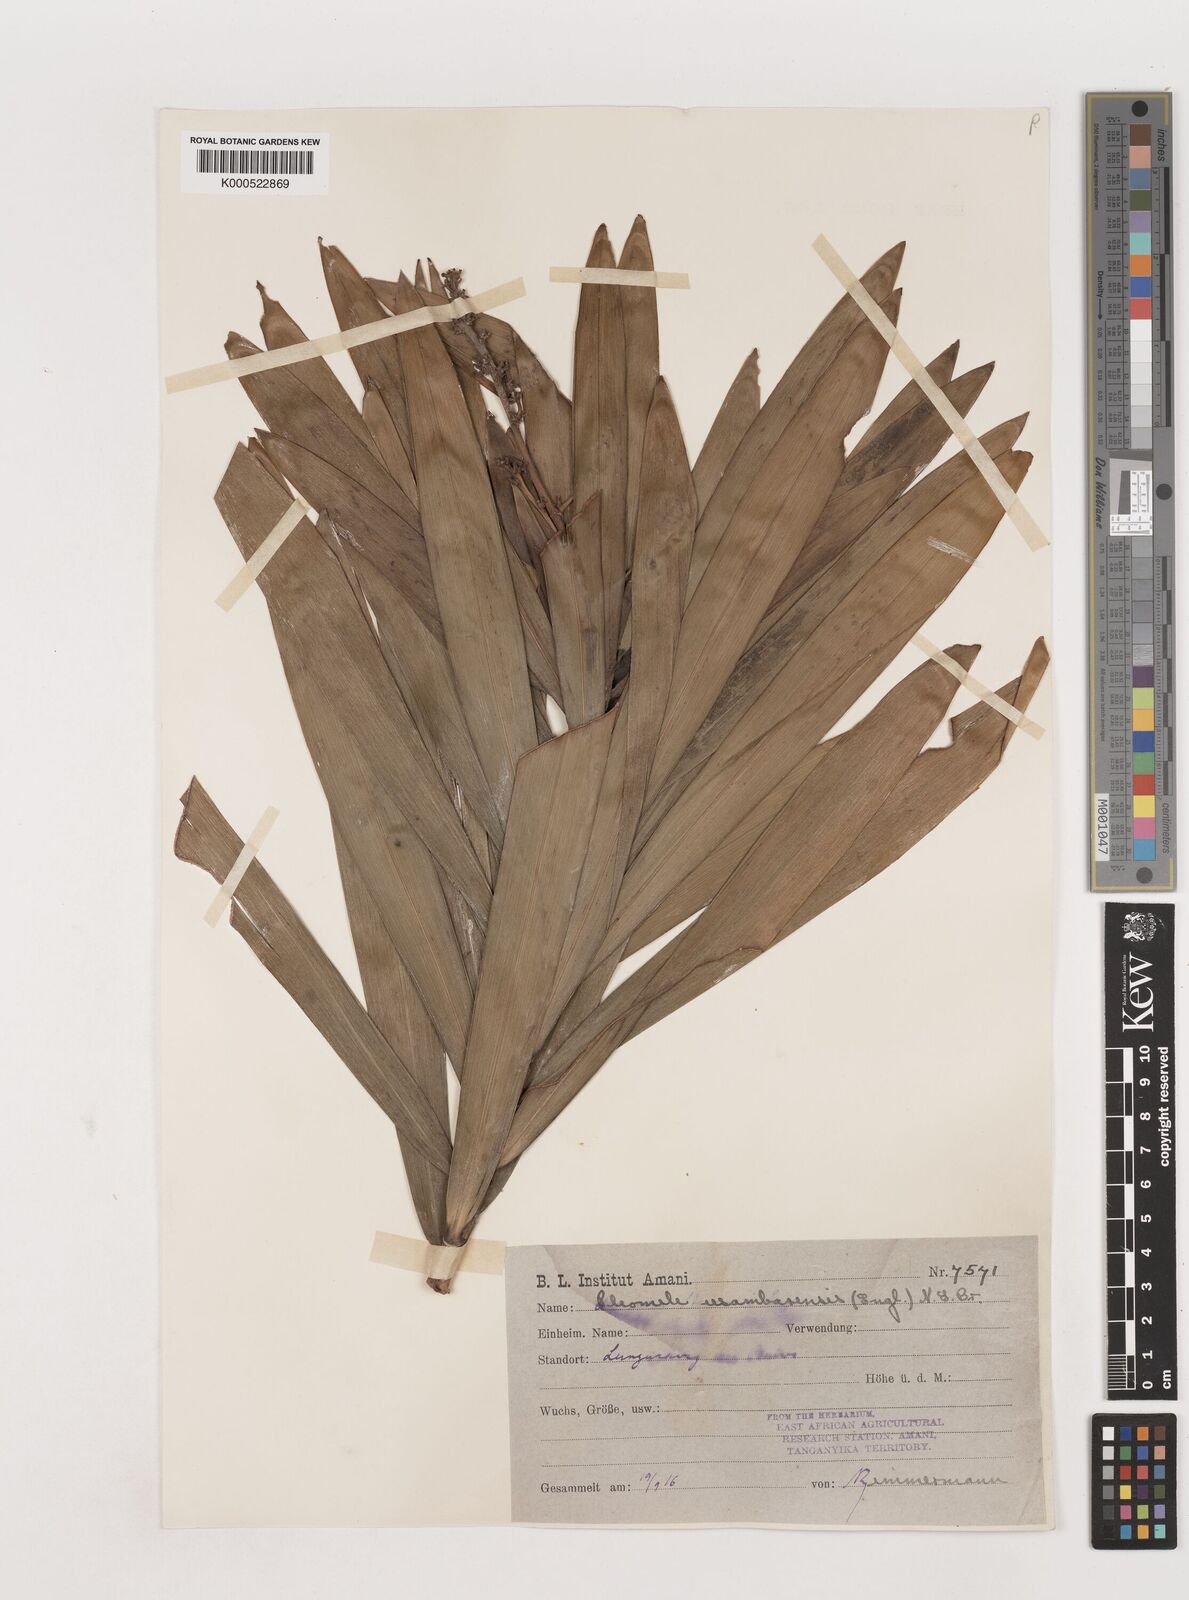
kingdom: Plantae
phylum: Tracheophyta
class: Liliopsida
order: Asparagales
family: Asparagaceae
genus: Dracaena
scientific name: Dracaena usambarensis
